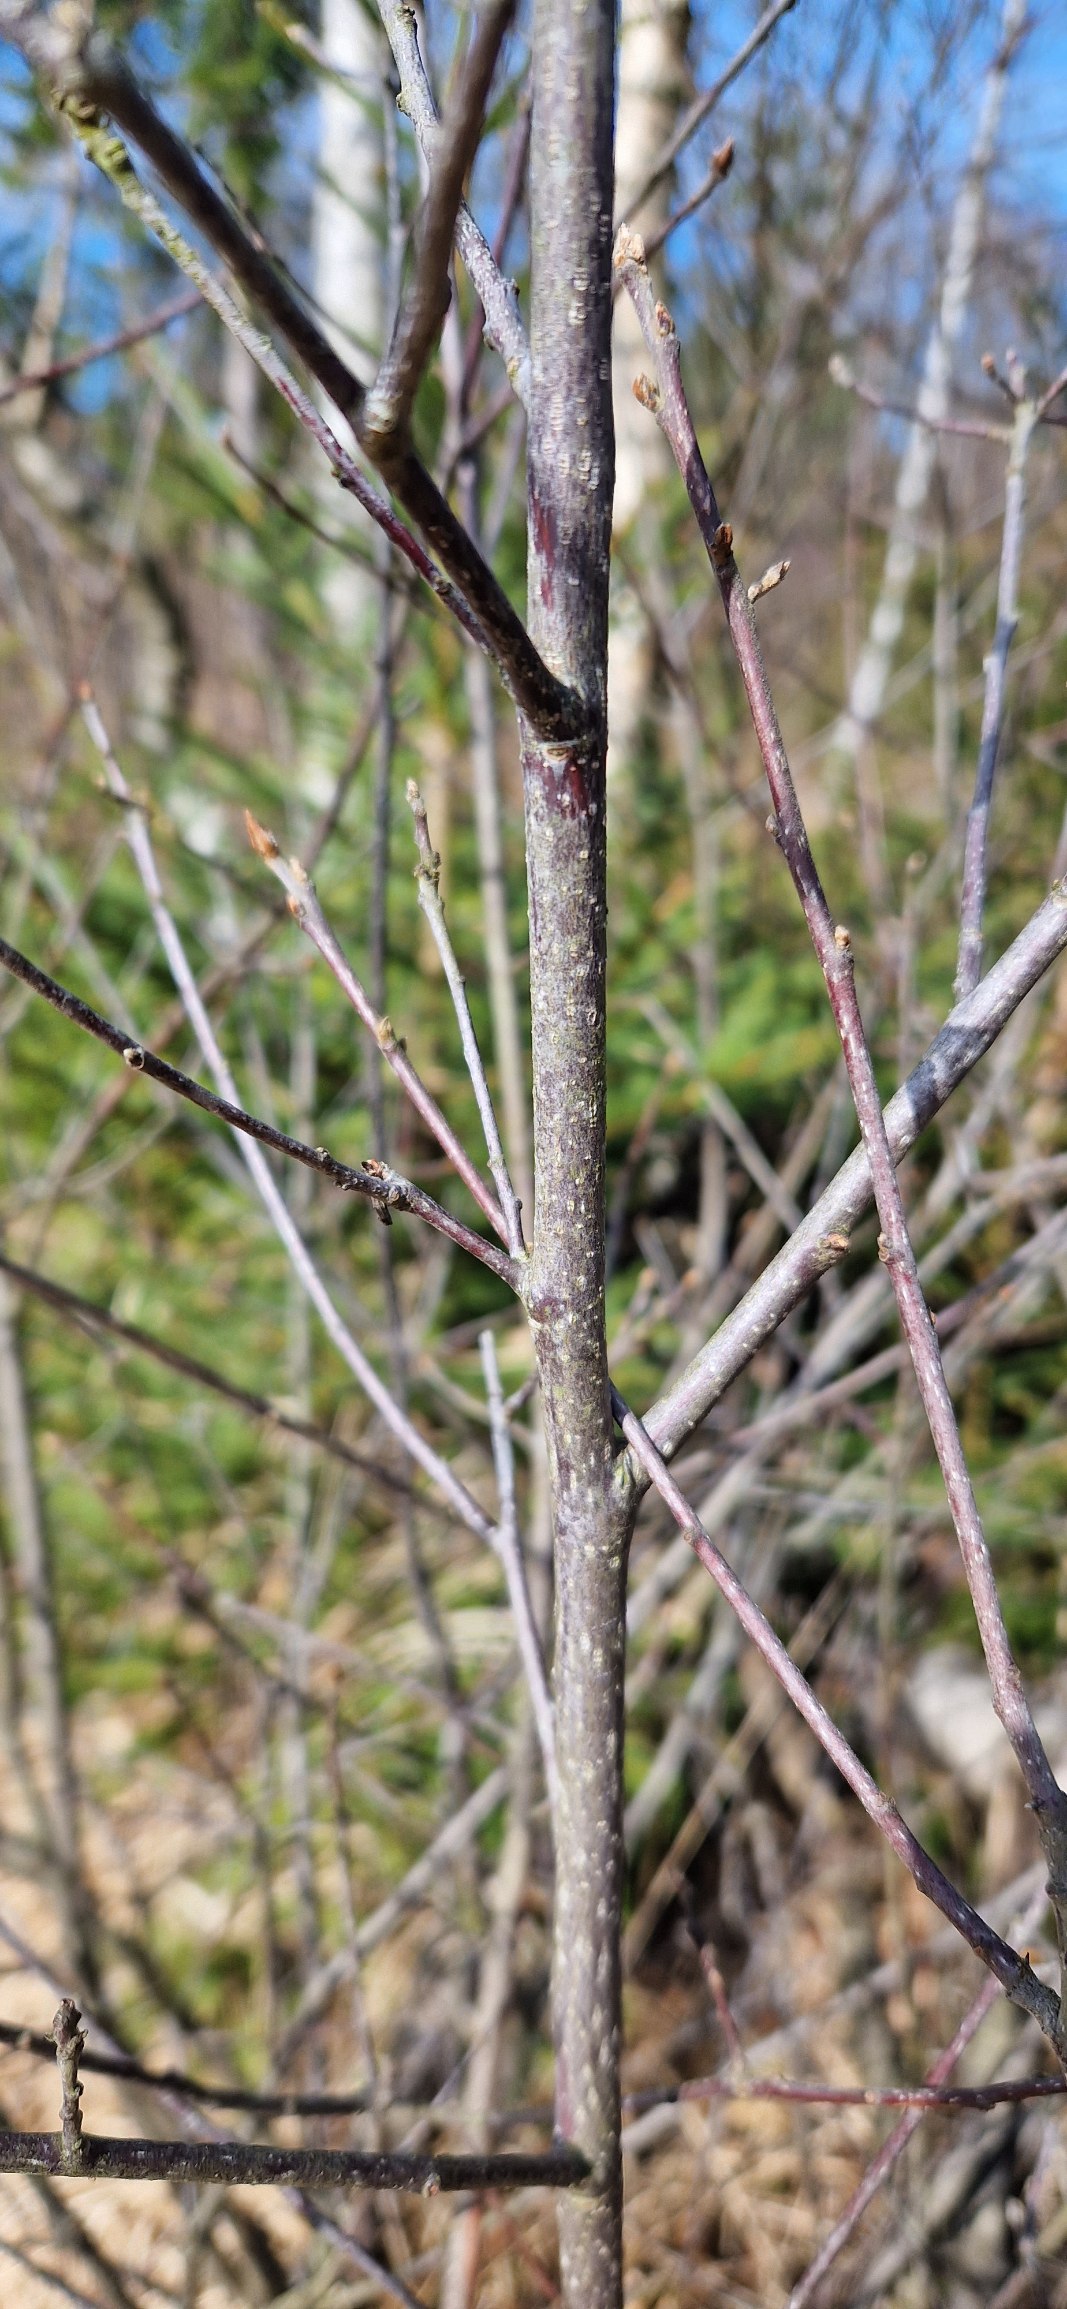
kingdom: Plantae
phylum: Tracheophyta
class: Magnoliopsida
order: Rosales
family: Rhamnaceae
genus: Frangula
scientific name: Frangula alnus
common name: Tørst
